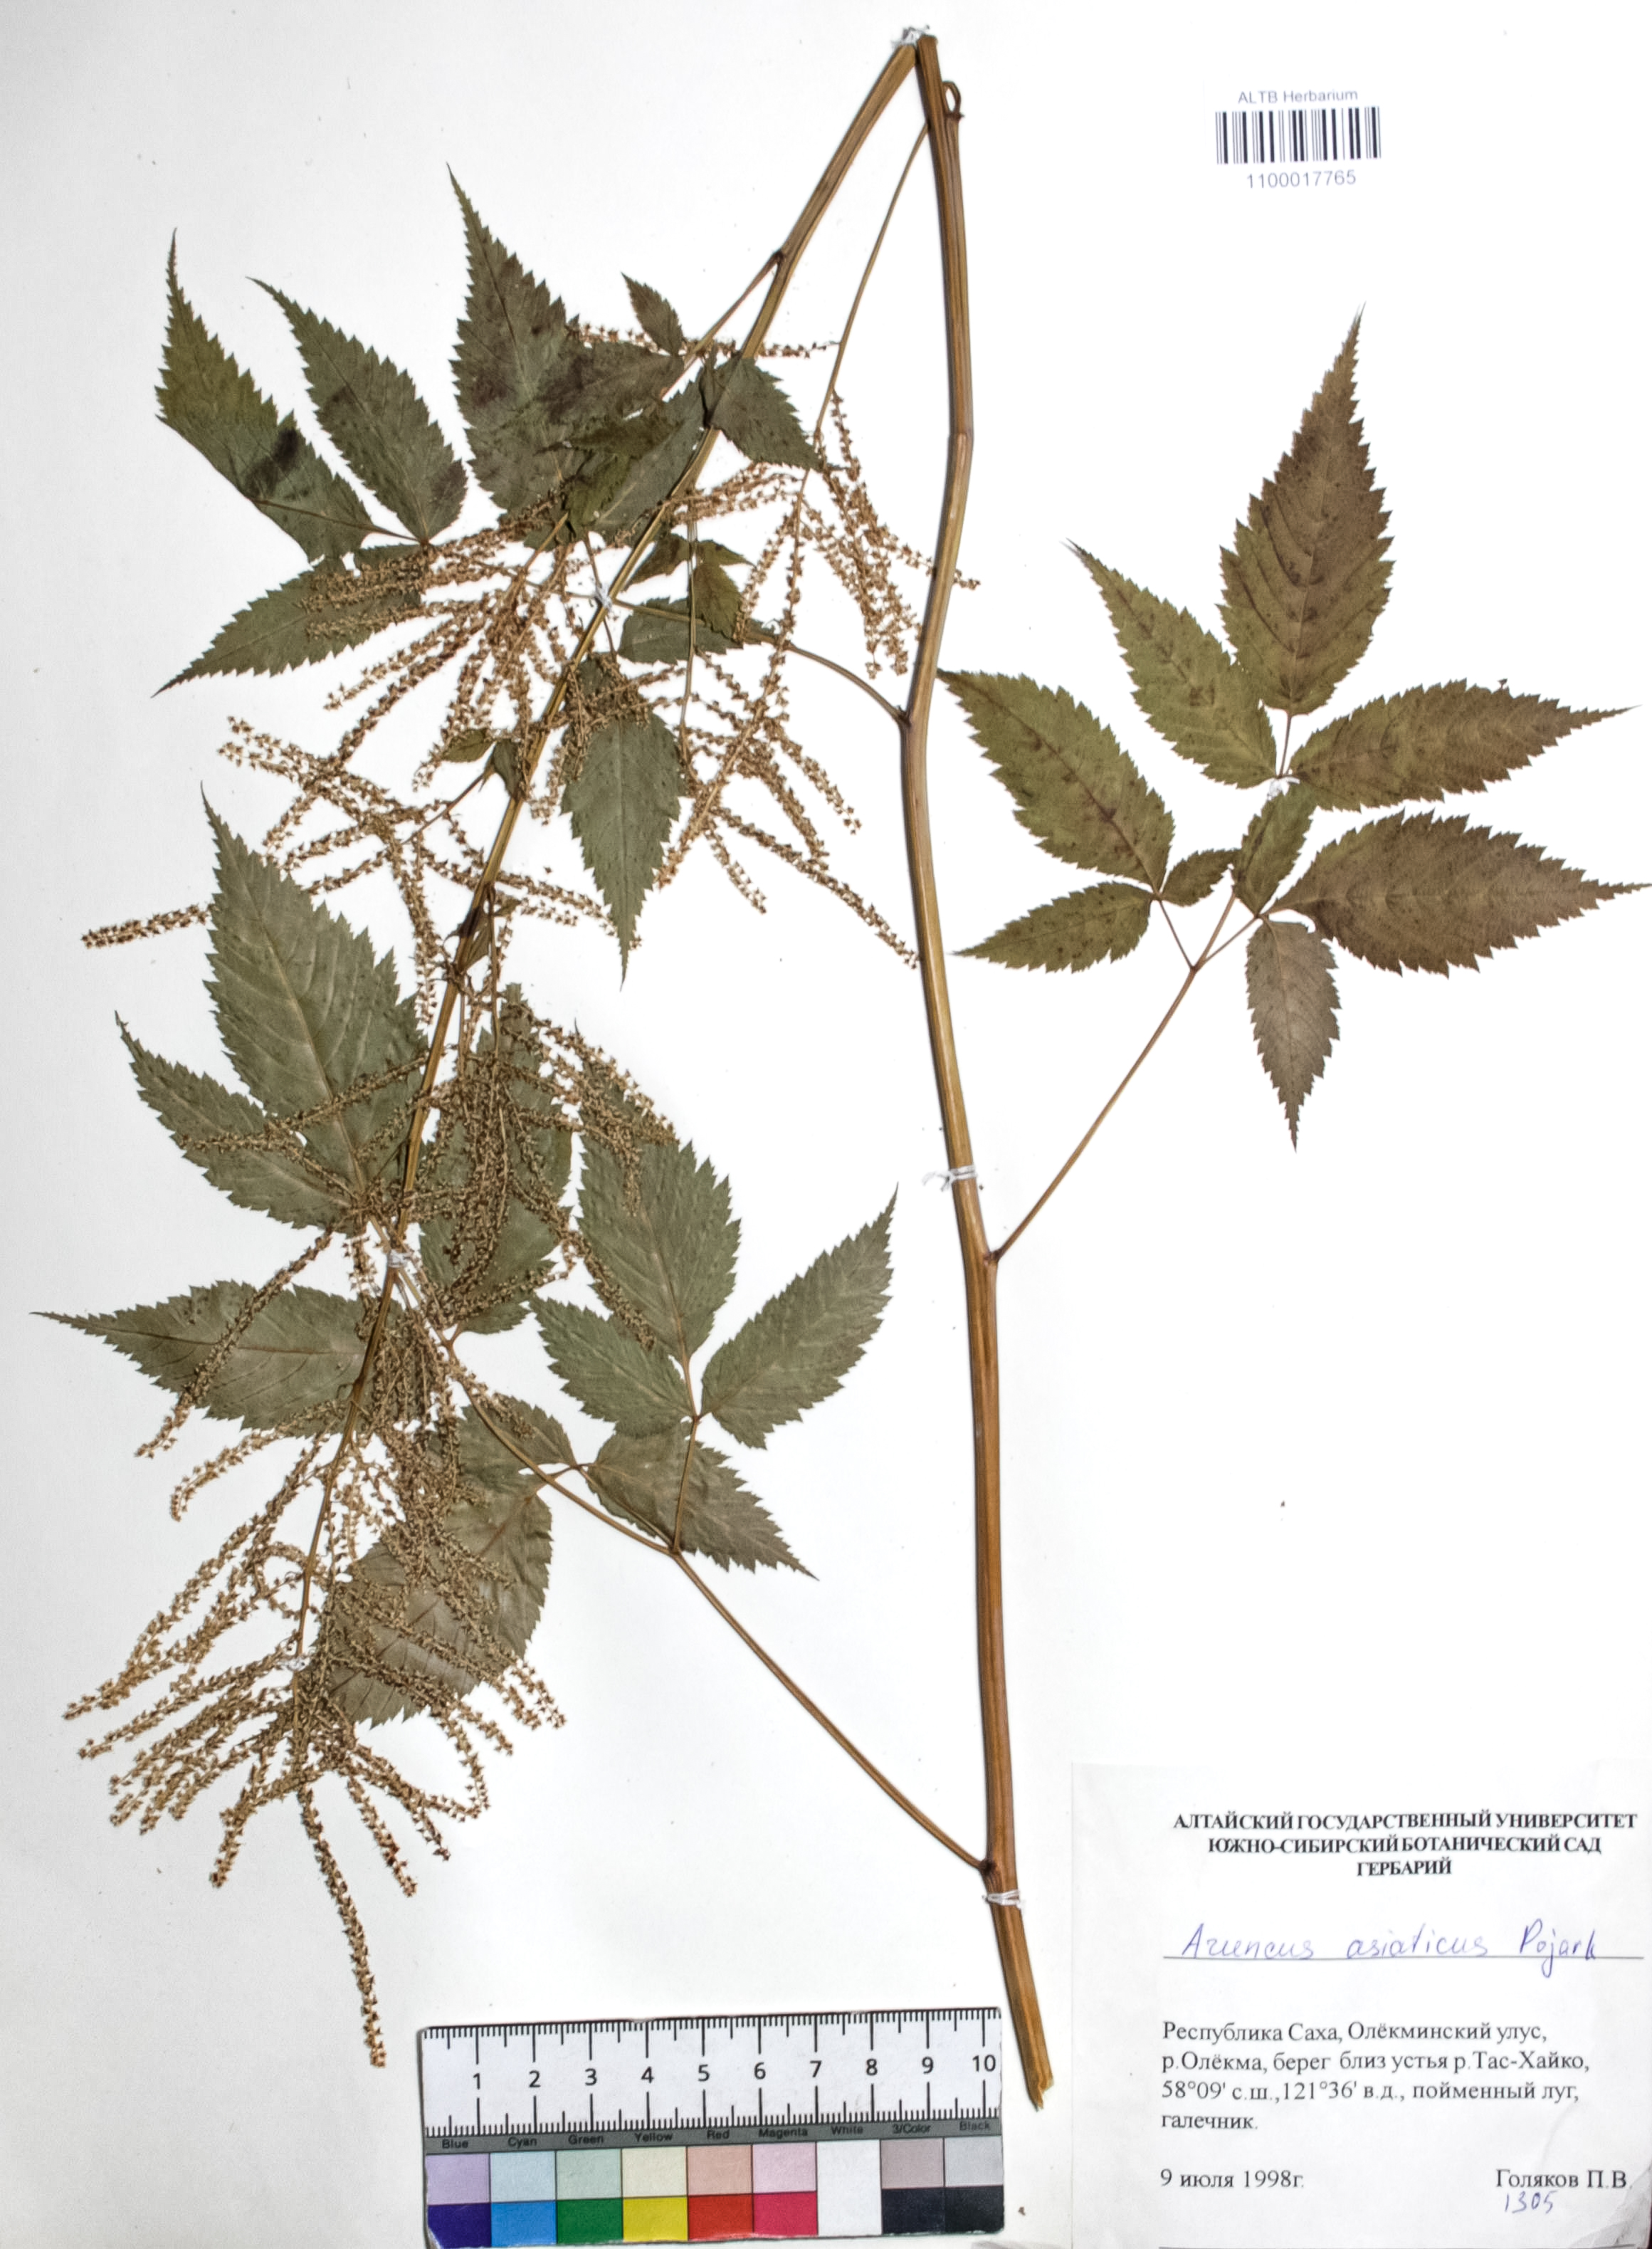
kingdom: Plantae
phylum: Tracheophyta
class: Magnoliopsida
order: Rosales
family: Rosaceae
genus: Aruncus
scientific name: Aruncus sylvester
